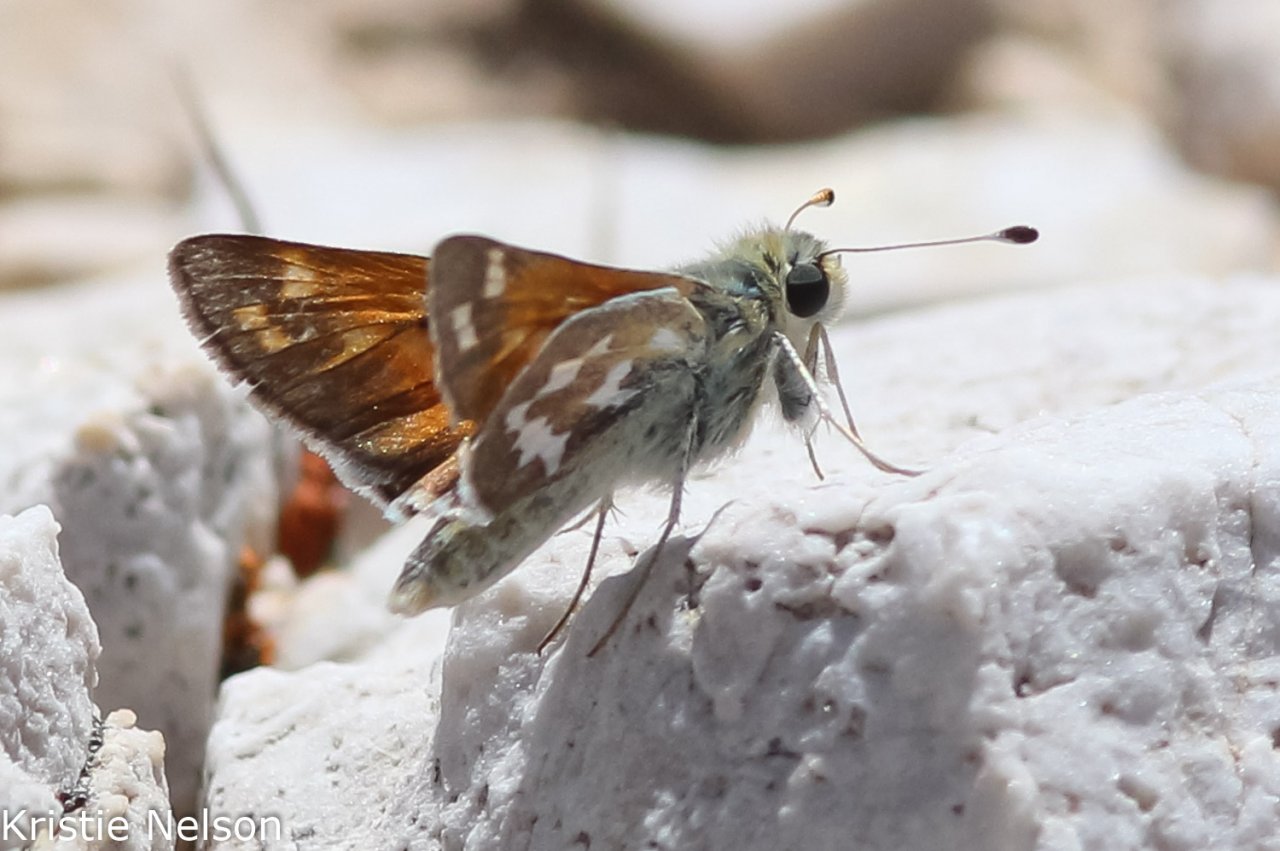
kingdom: Animalia
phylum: Arthropoda
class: Insecta
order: Lepidoptera
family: Hesperiidae
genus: Hesperia
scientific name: Hesperia comma
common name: Western Branded Skipper
